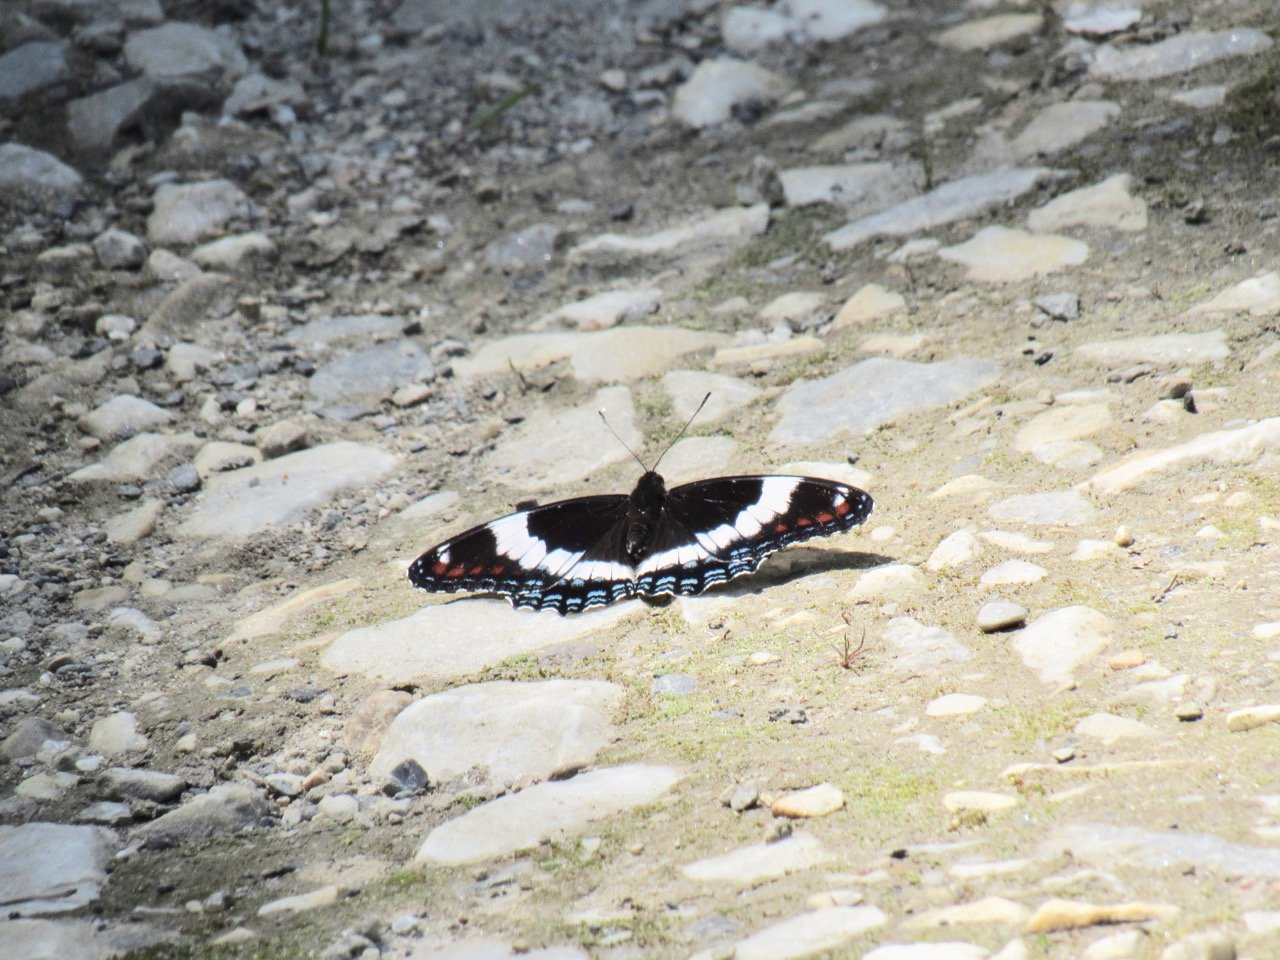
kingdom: Animalia
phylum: Arthropoda
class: Insecta
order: Lepidoptera
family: Nymphalidae
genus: Limenitis
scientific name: Limenitis arthemis
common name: Red-spotted Admiral
